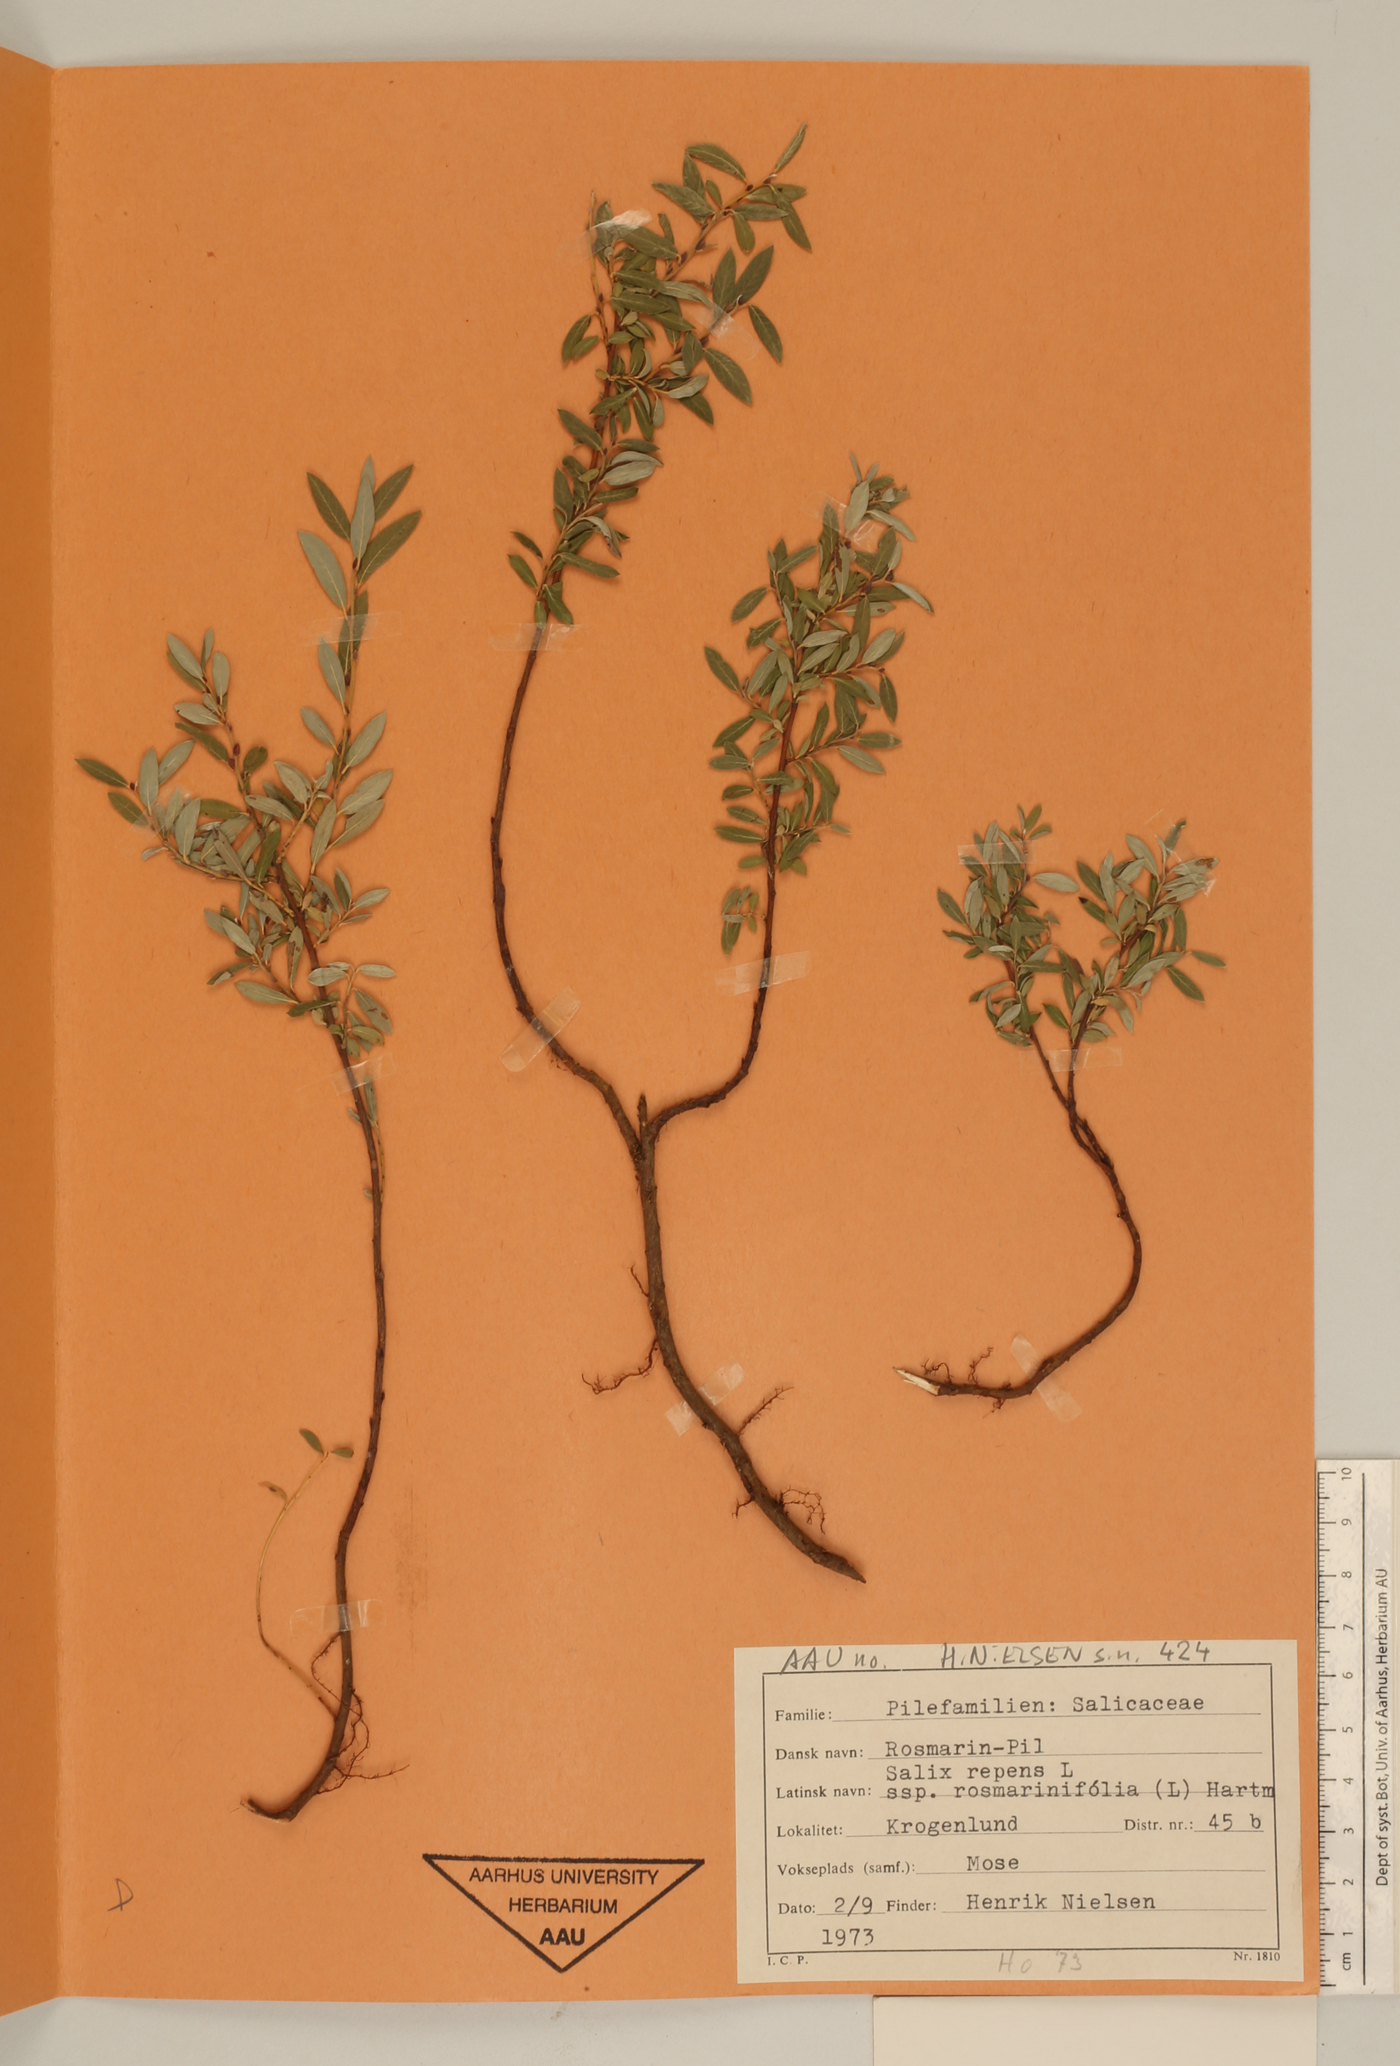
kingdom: Plantae
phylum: Tracheophyta
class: Magnoliopsida
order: Malpighiales
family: Salicaceae
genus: Salix
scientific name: Salix repens
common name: Creeping willow
